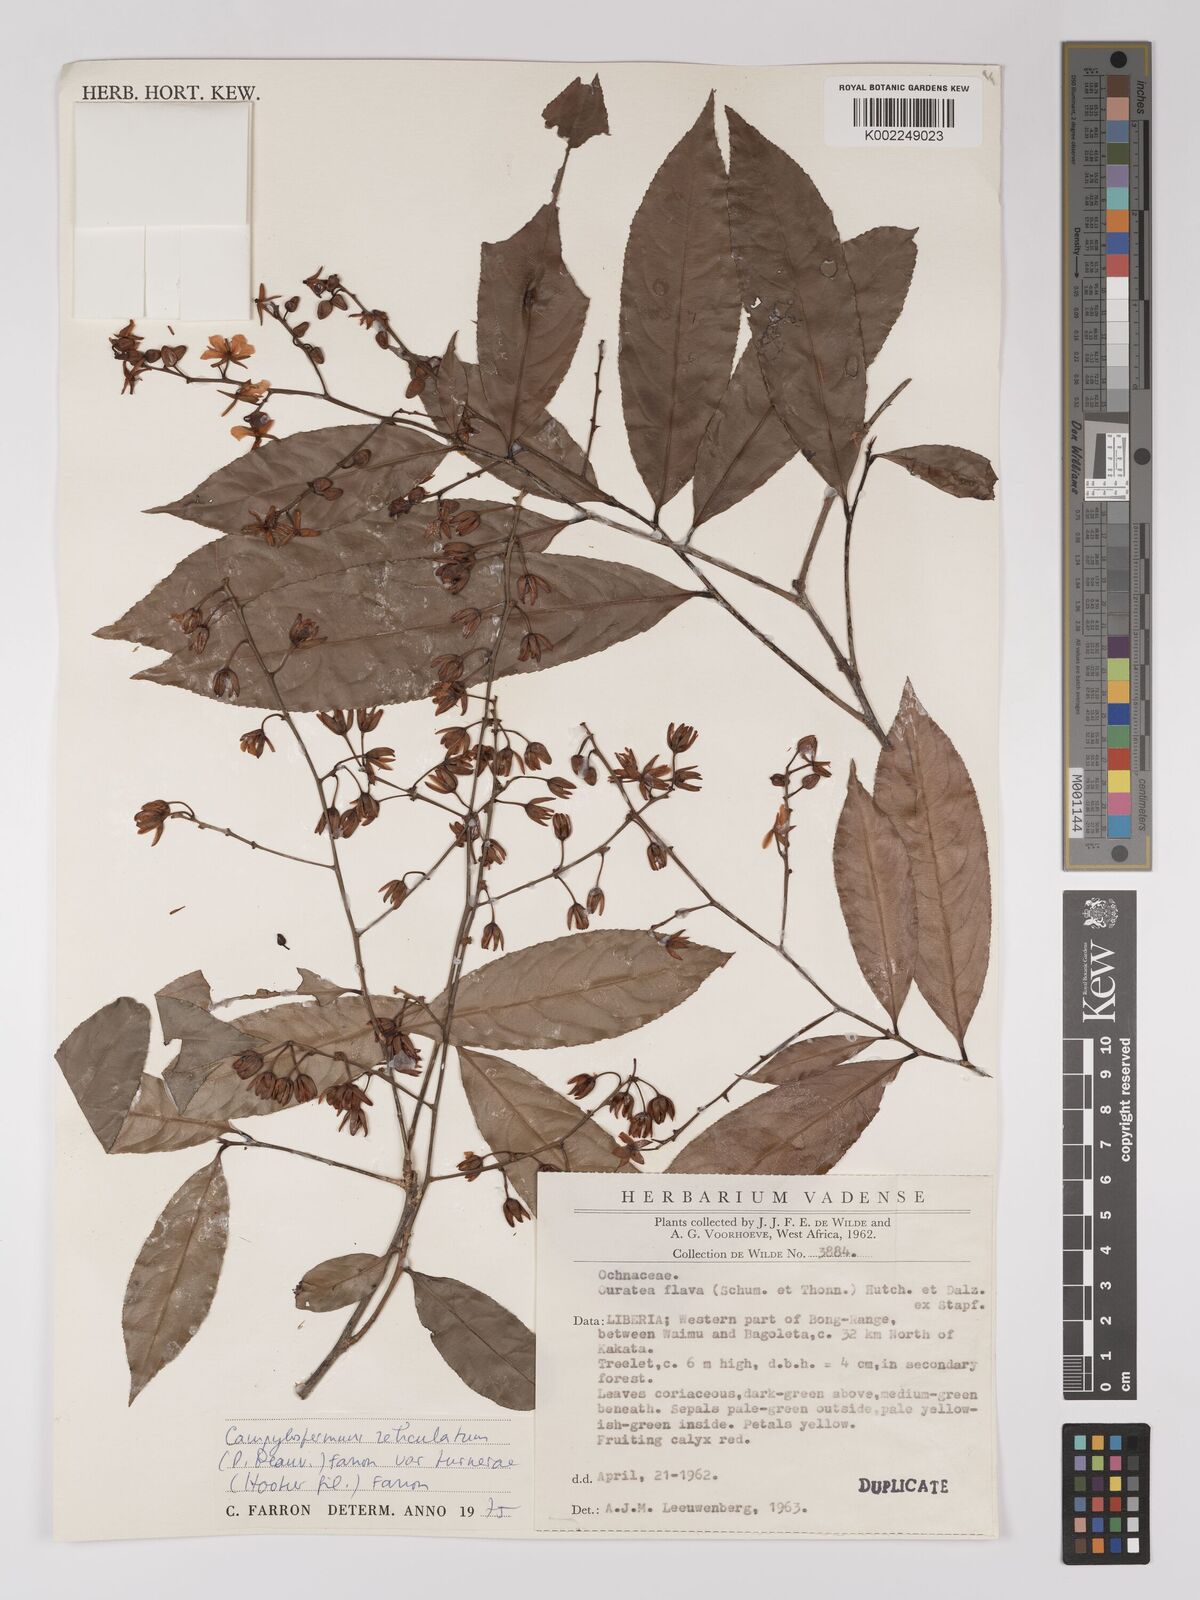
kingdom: Plantae
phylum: Tracheophyta
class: Magnoliopsida
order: Malpighiales
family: Ochnaceae
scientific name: Ochnaceae
